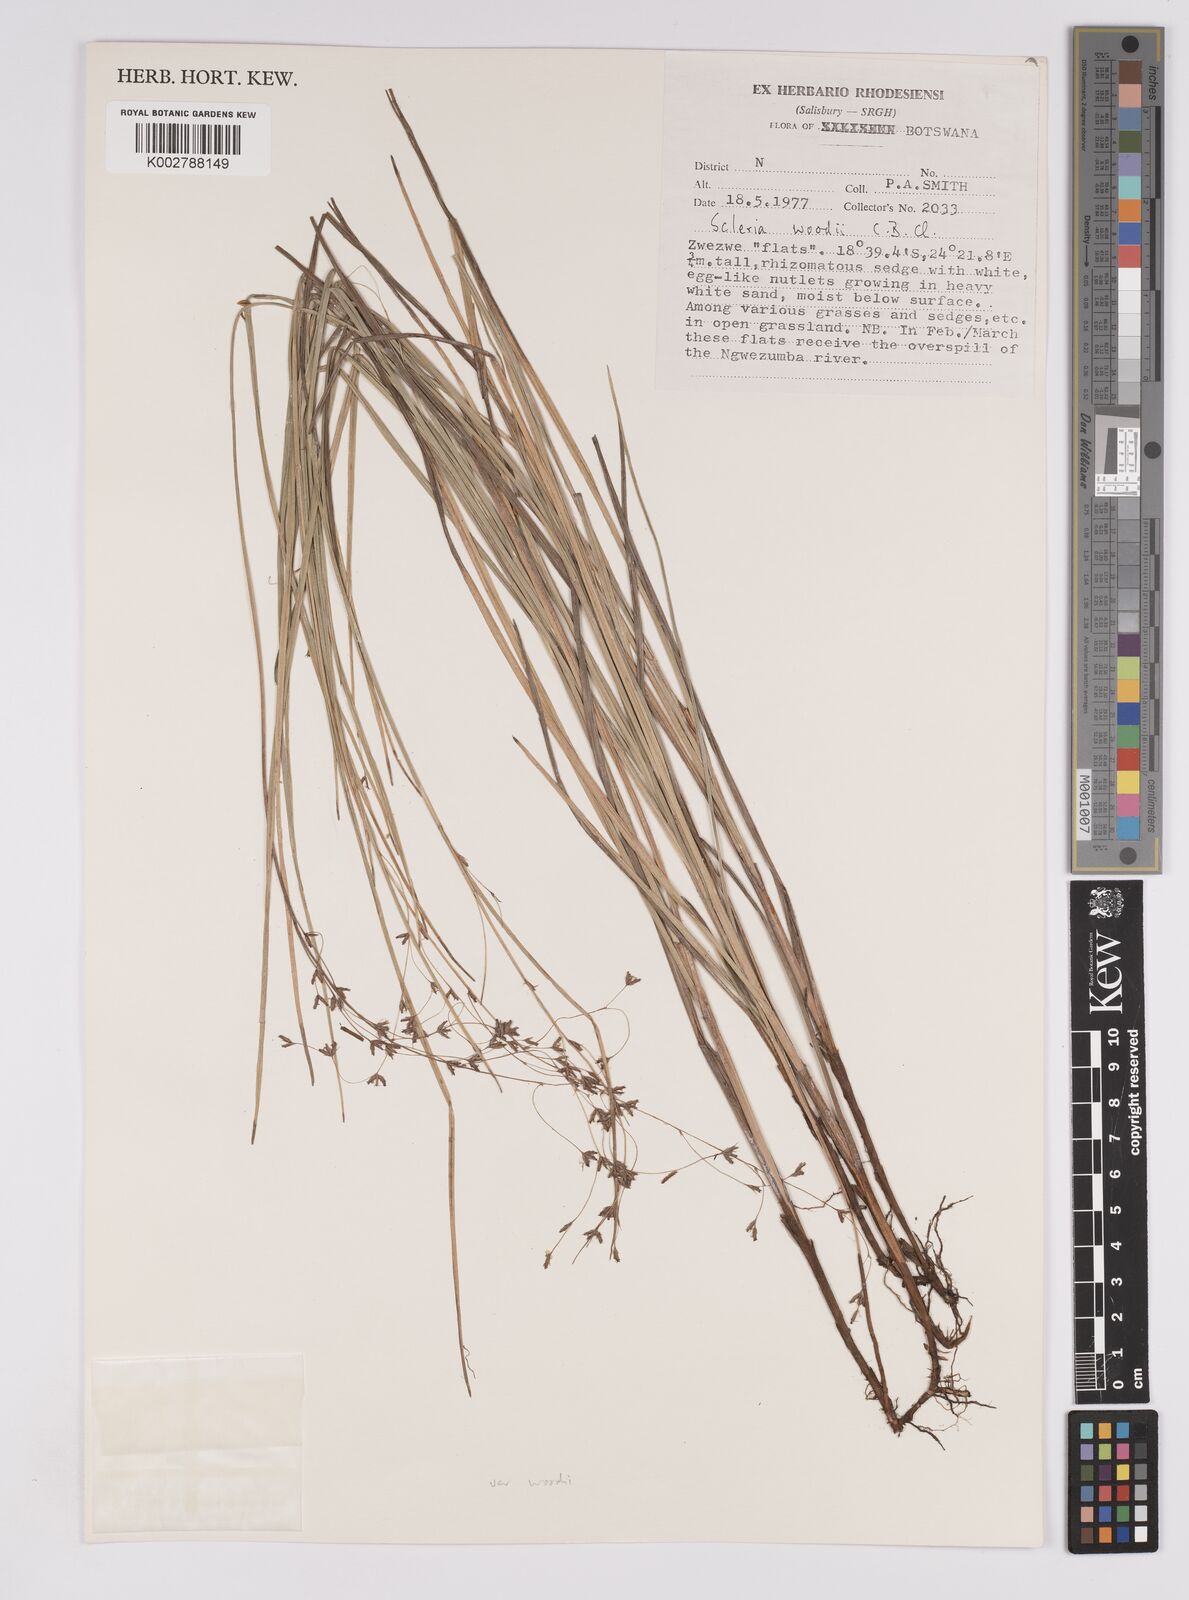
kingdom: Plantae
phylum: Tracheophyta
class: Liliopsida
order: Poales
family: Cyperaceae
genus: Scleria
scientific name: Scleria woodii
